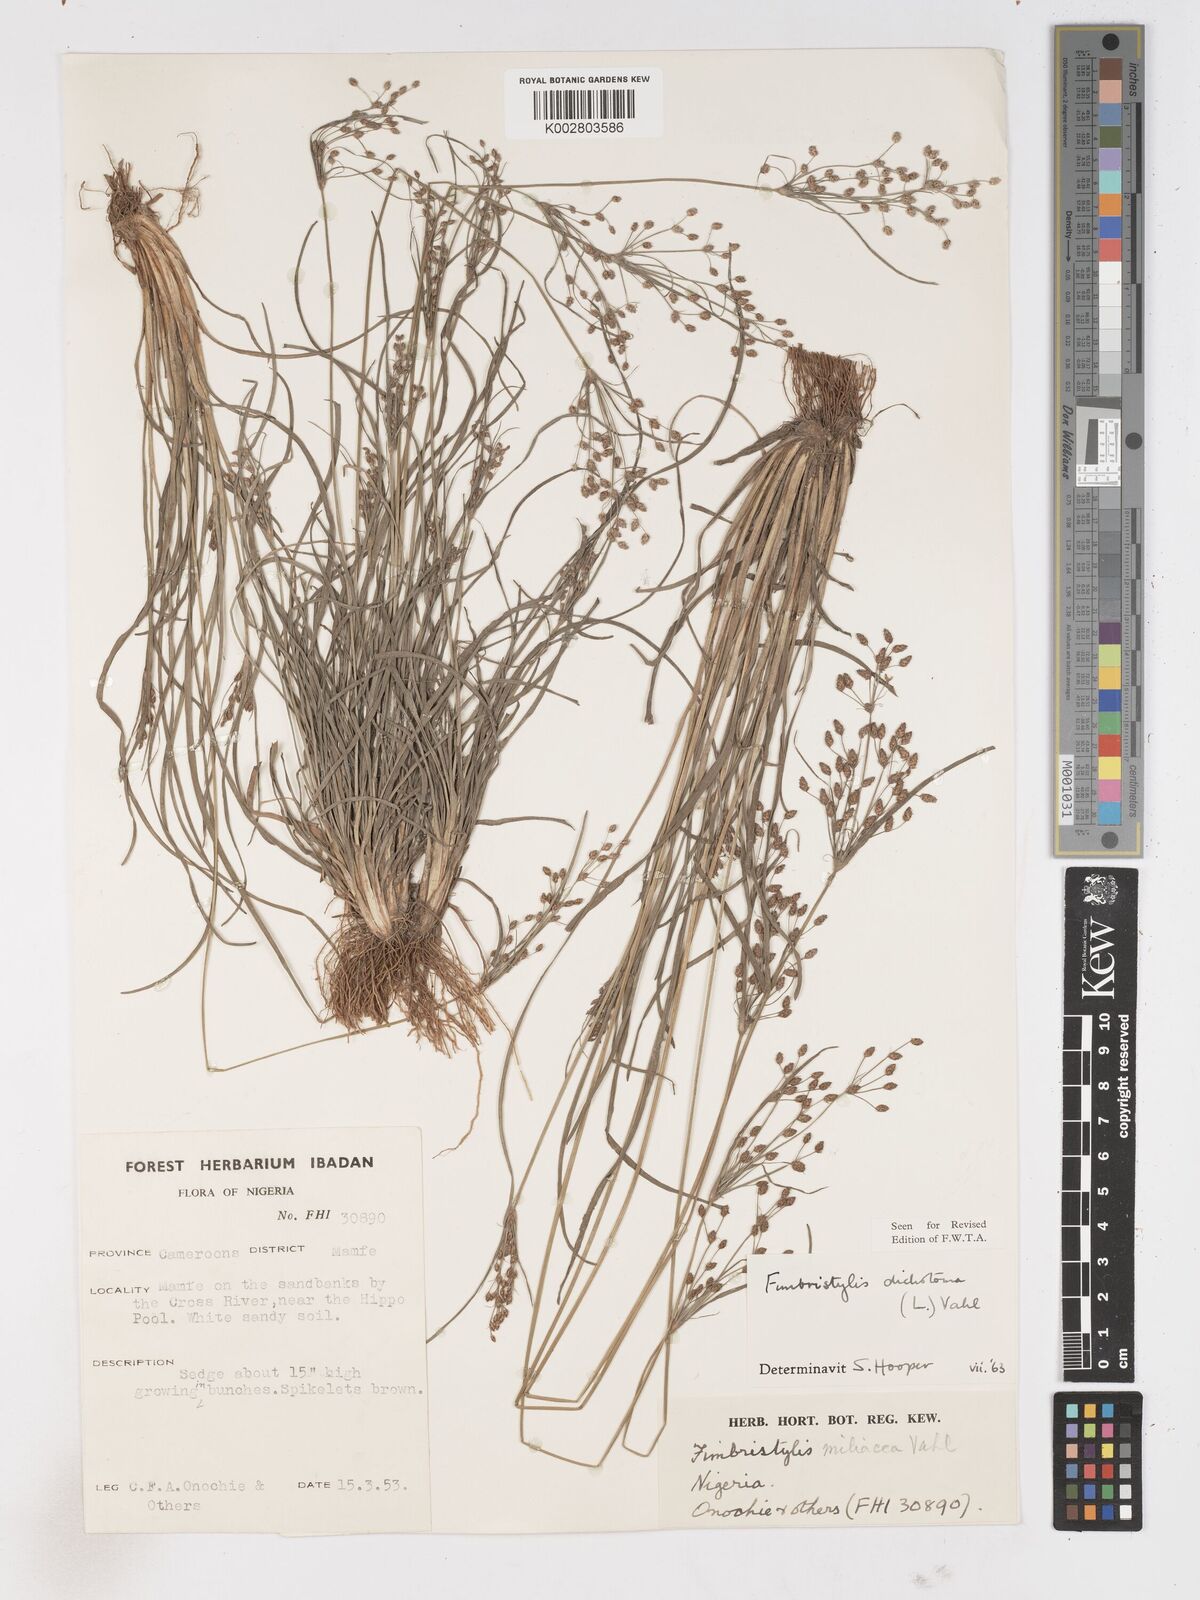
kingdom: Plantae
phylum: Tracheophyta
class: Liliopsida
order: Poales
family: Cyperaceae
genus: Fimbristylis
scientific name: Fimbristylis dichotoma
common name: Forked fimbry
